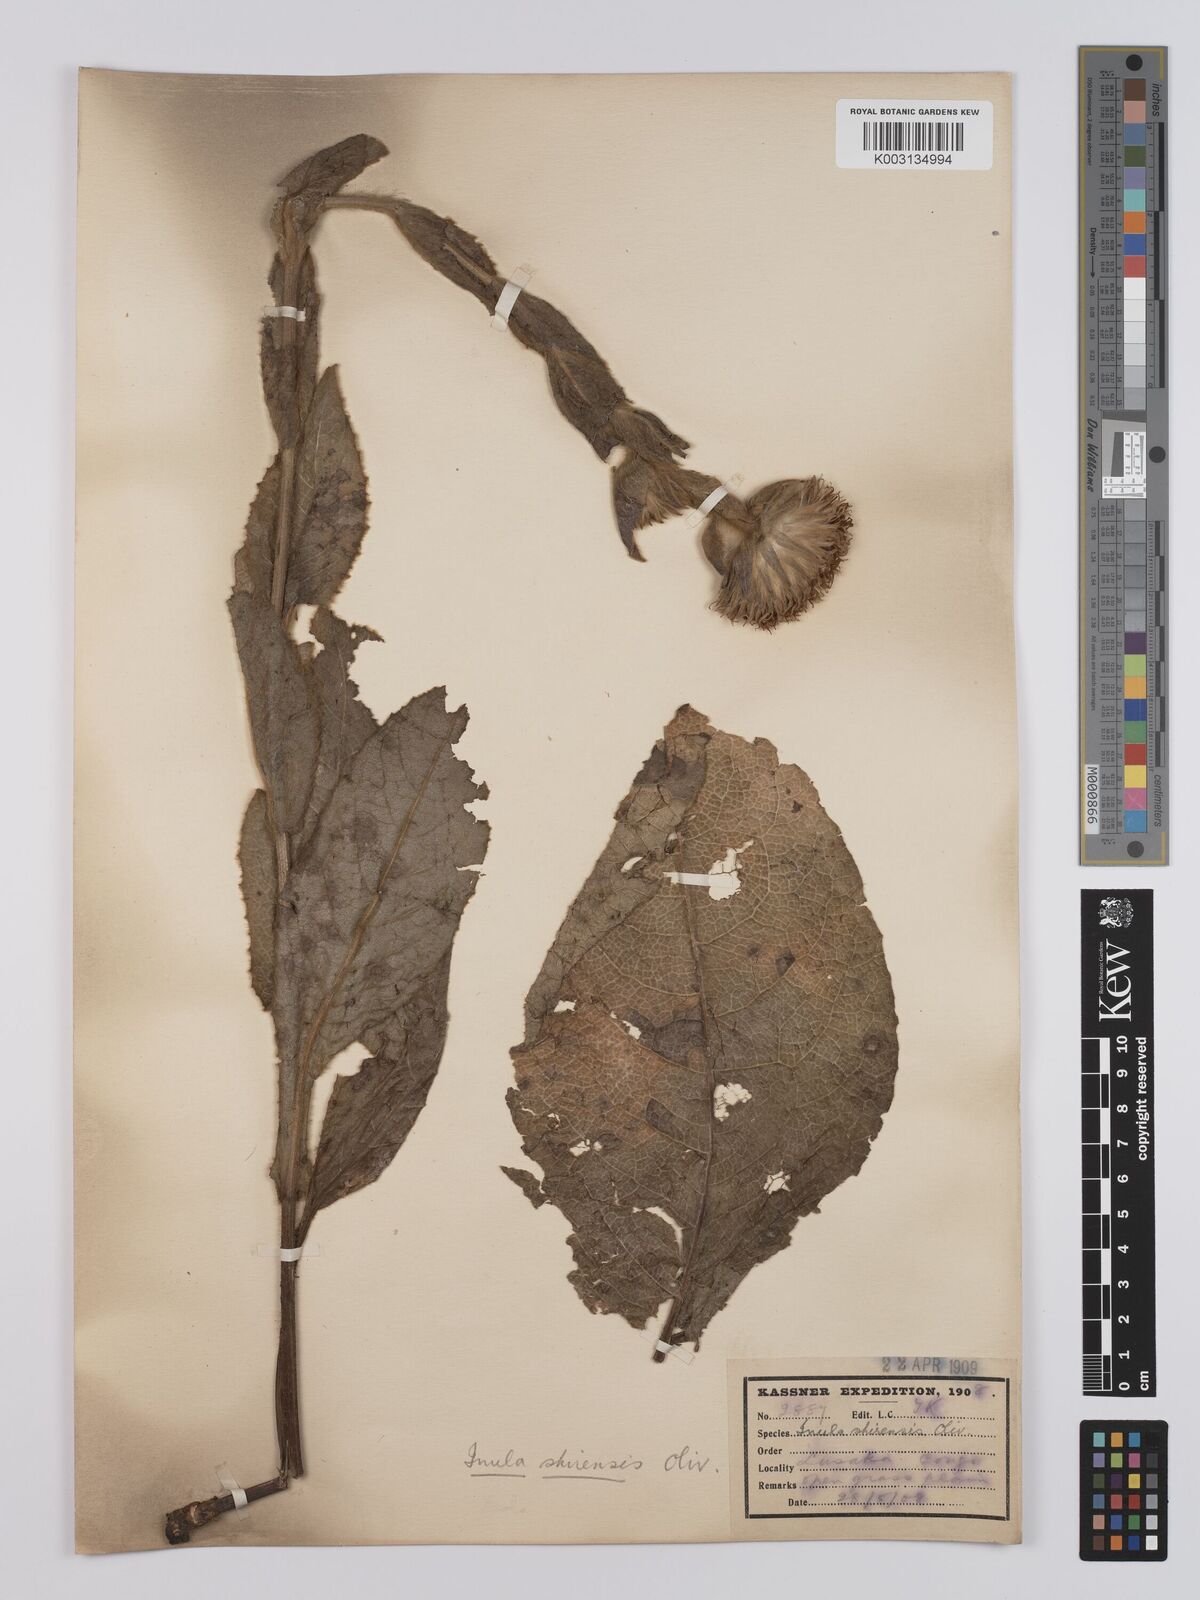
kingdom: Plantae
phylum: Tracheophyta
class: Magnoliopsida
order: Asterales
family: Asteraceae
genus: Monactinocephalus
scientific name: Monactinocephalus shirensis
